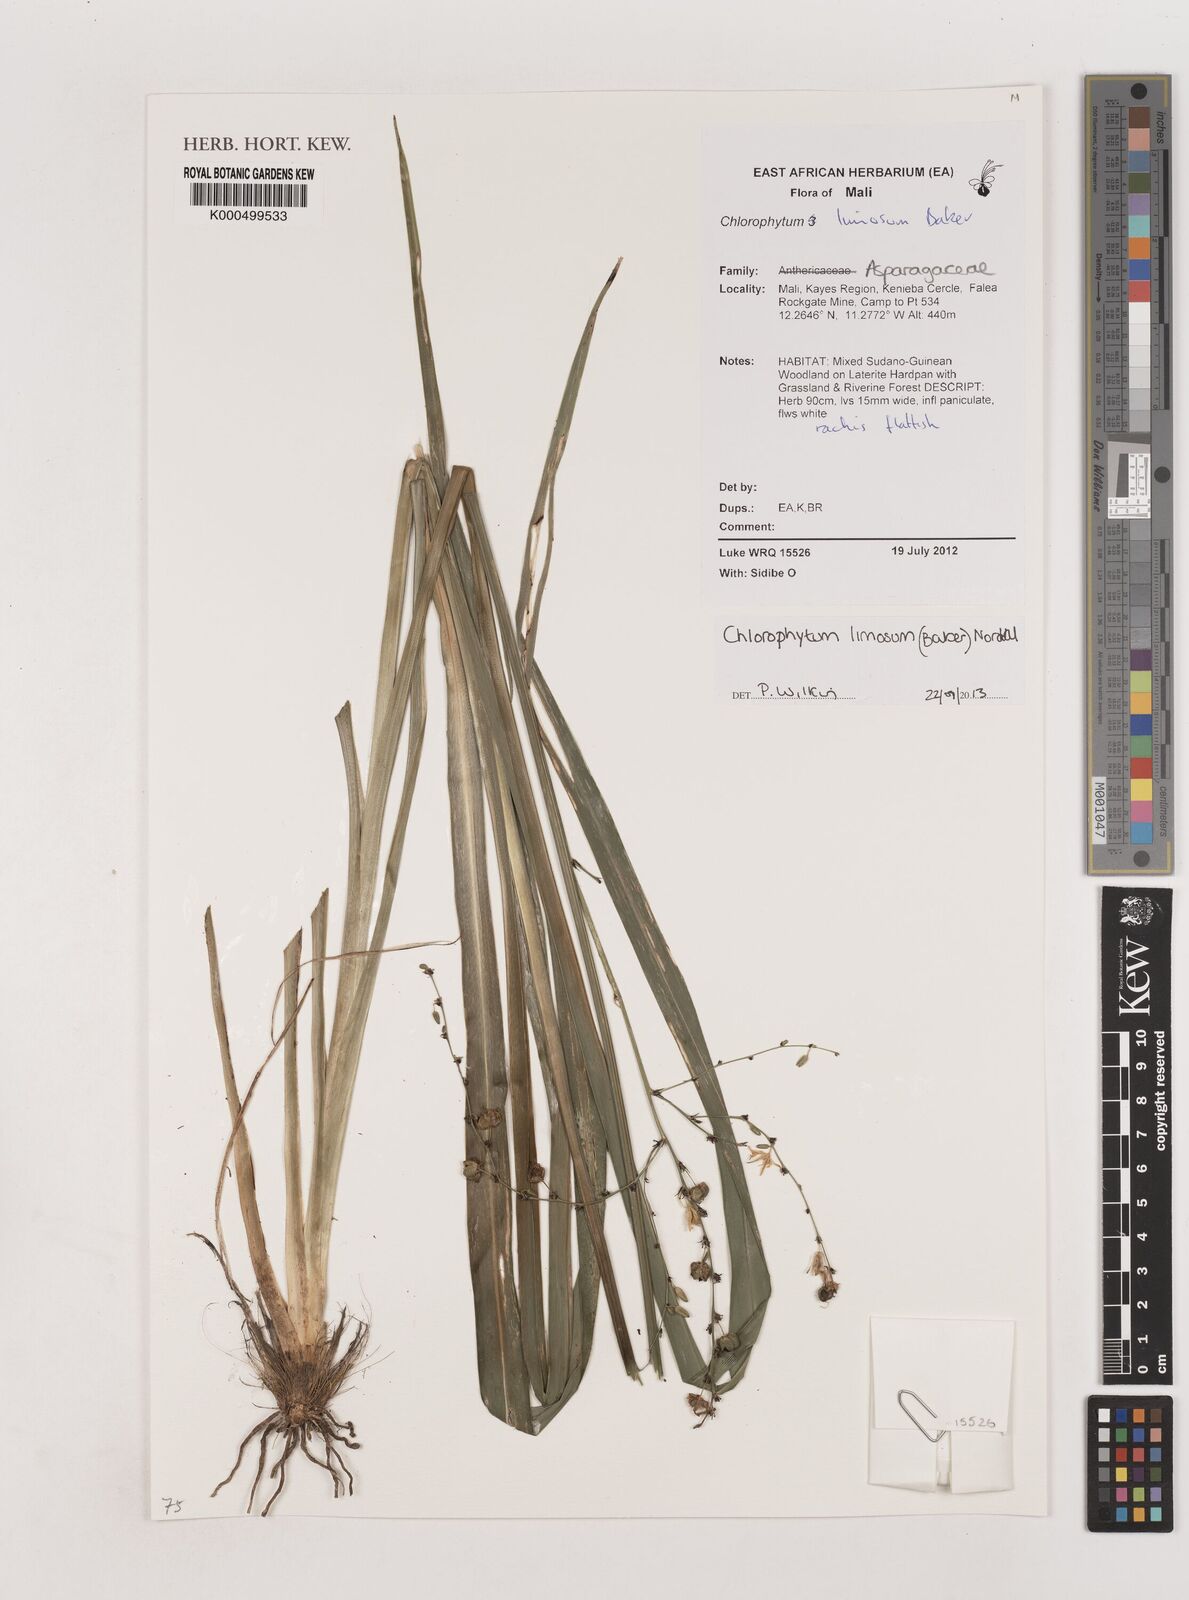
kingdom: Plantae
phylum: Tracheophyta
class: Liliopsida
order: Asparagales
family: Asparagaceae
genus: Chlorophytum
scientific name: Chlorophytum limosum
